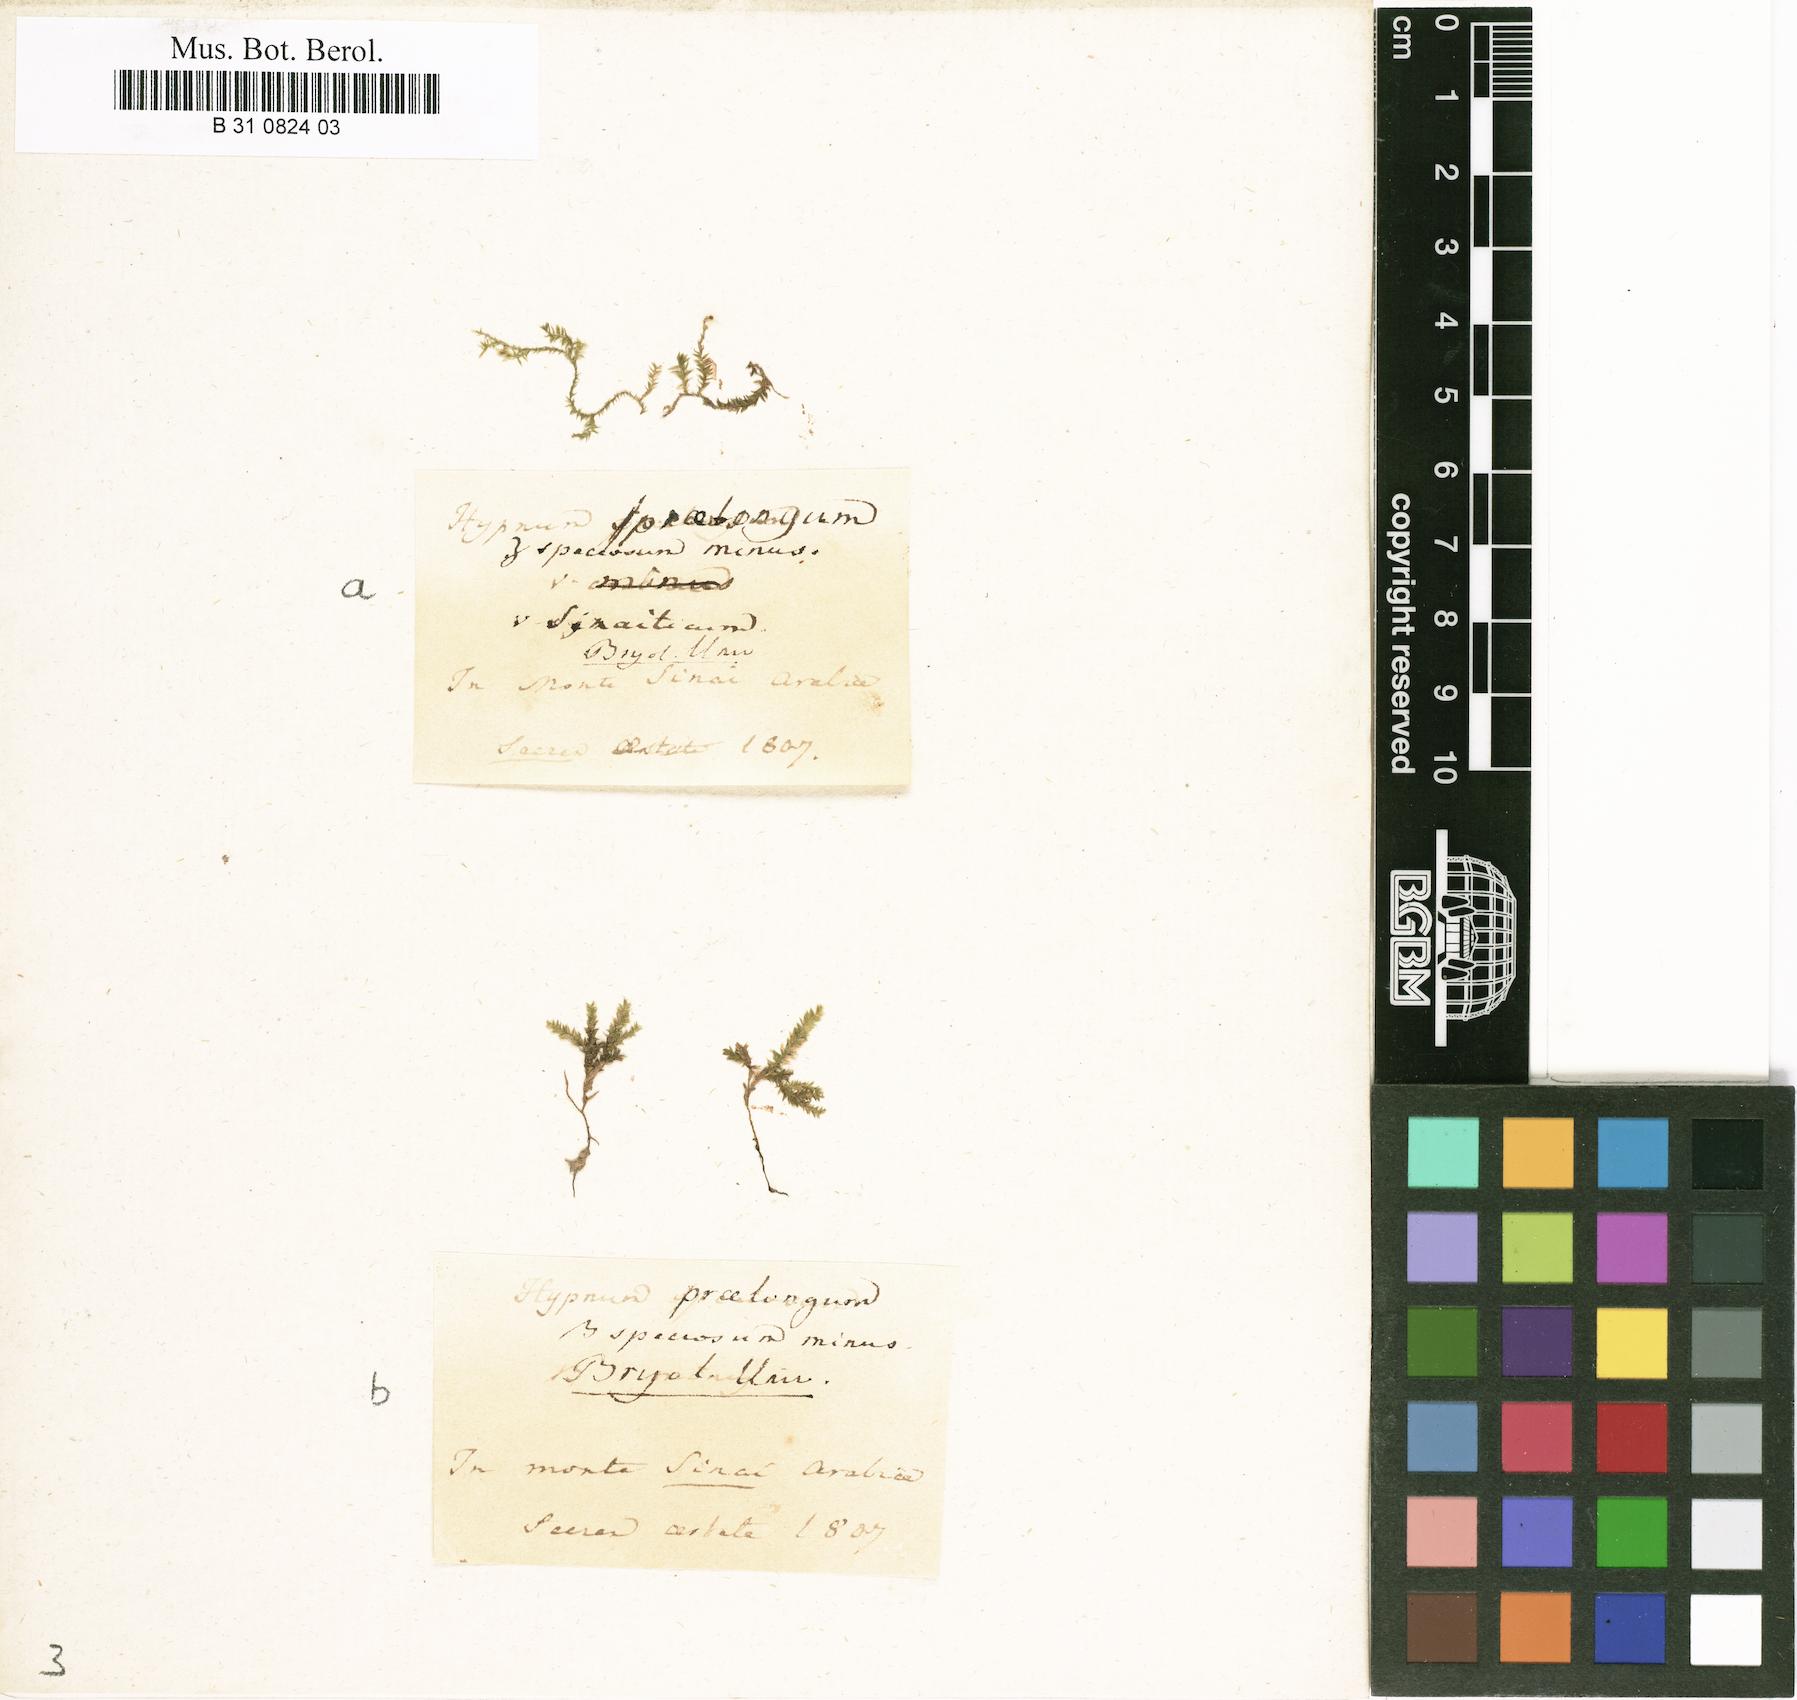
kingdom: Plantae
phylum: Bryophyta
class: Bryopsida
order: Hypnales
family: Brachytheciaceae
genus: Kindbergia
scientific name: Kindbergia praelonga
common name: Slender beaked moss
